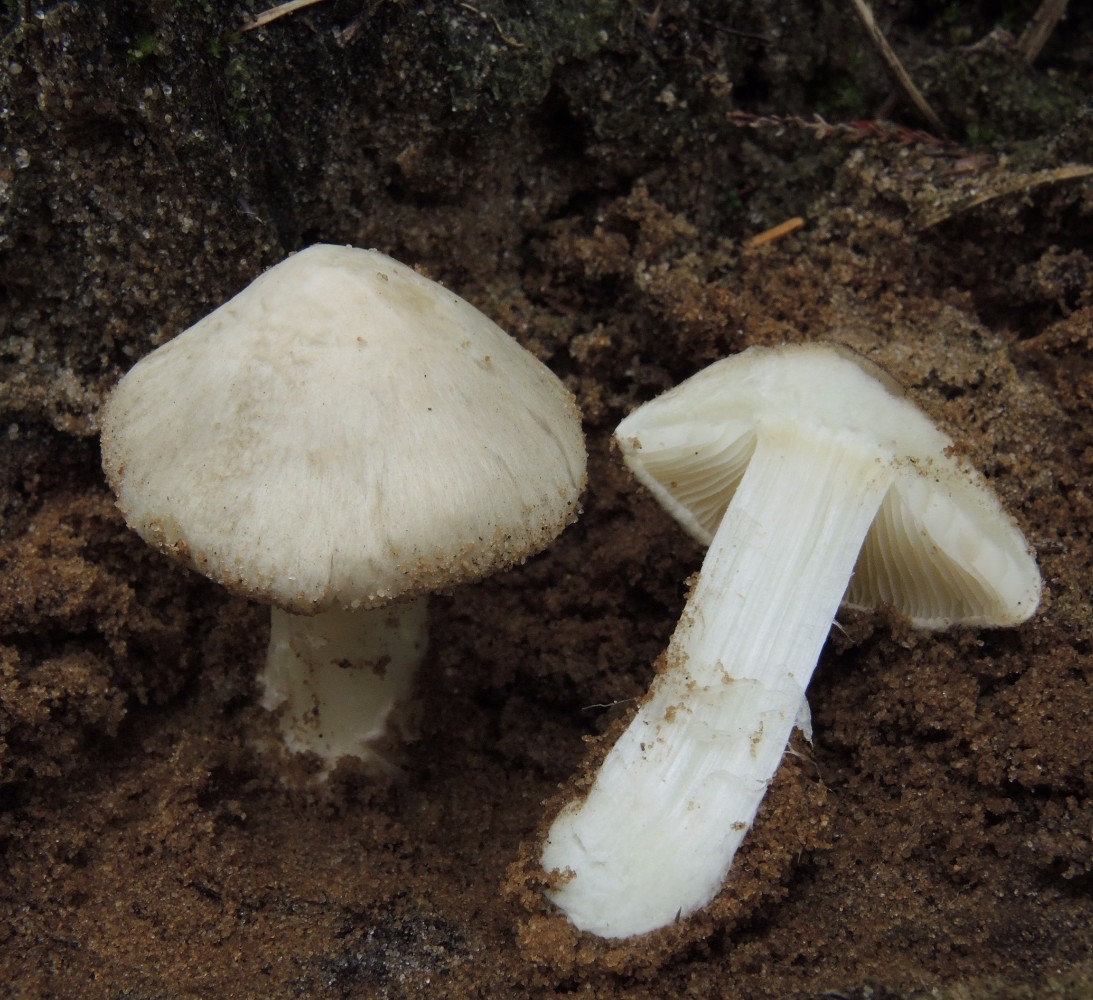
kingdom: Fungi
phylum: Basidiomycota
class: Agaricomycetes
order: Agaricales
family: Inocybaceae
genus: Inocybe
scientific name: Inocybe sambucina
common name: hyldehvid trævlhat
